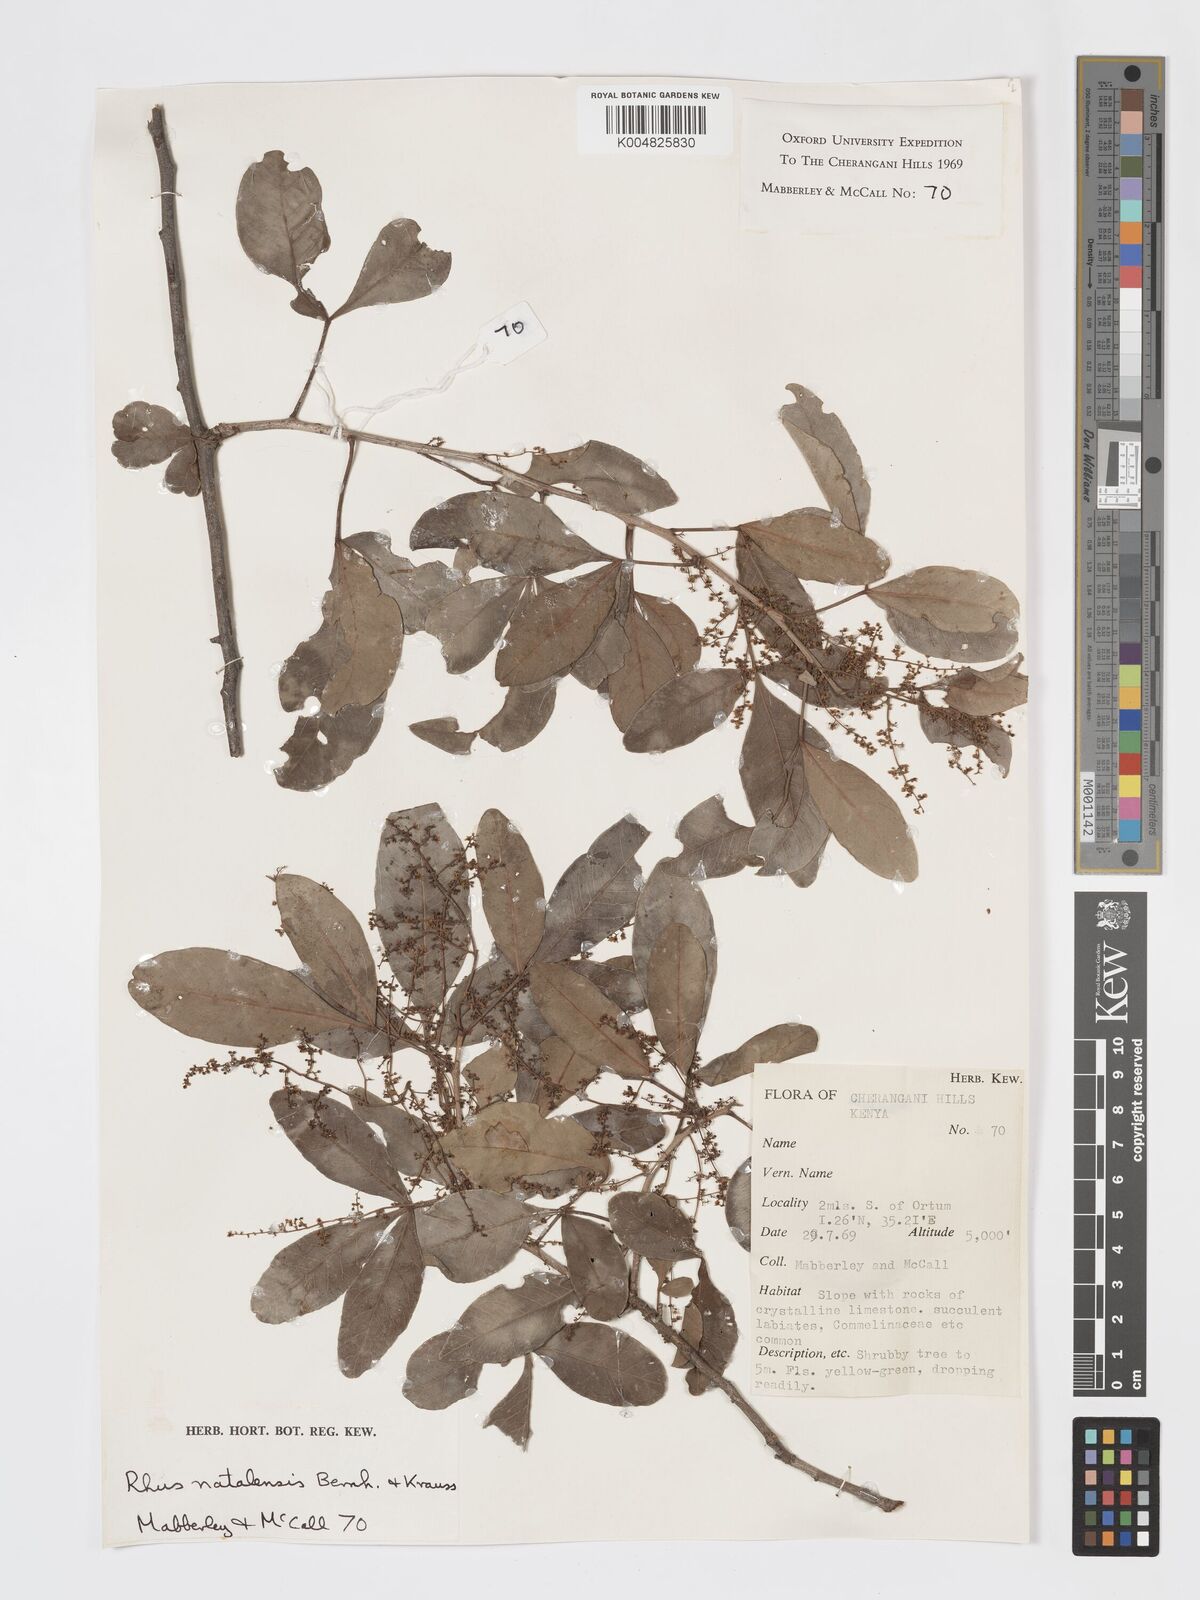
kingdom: Plantae
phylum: Tracheophyta
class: Magnoliopsida
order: Sapindales
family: Anacardiaceae
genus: Searsia
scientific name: Searsia natalensis
